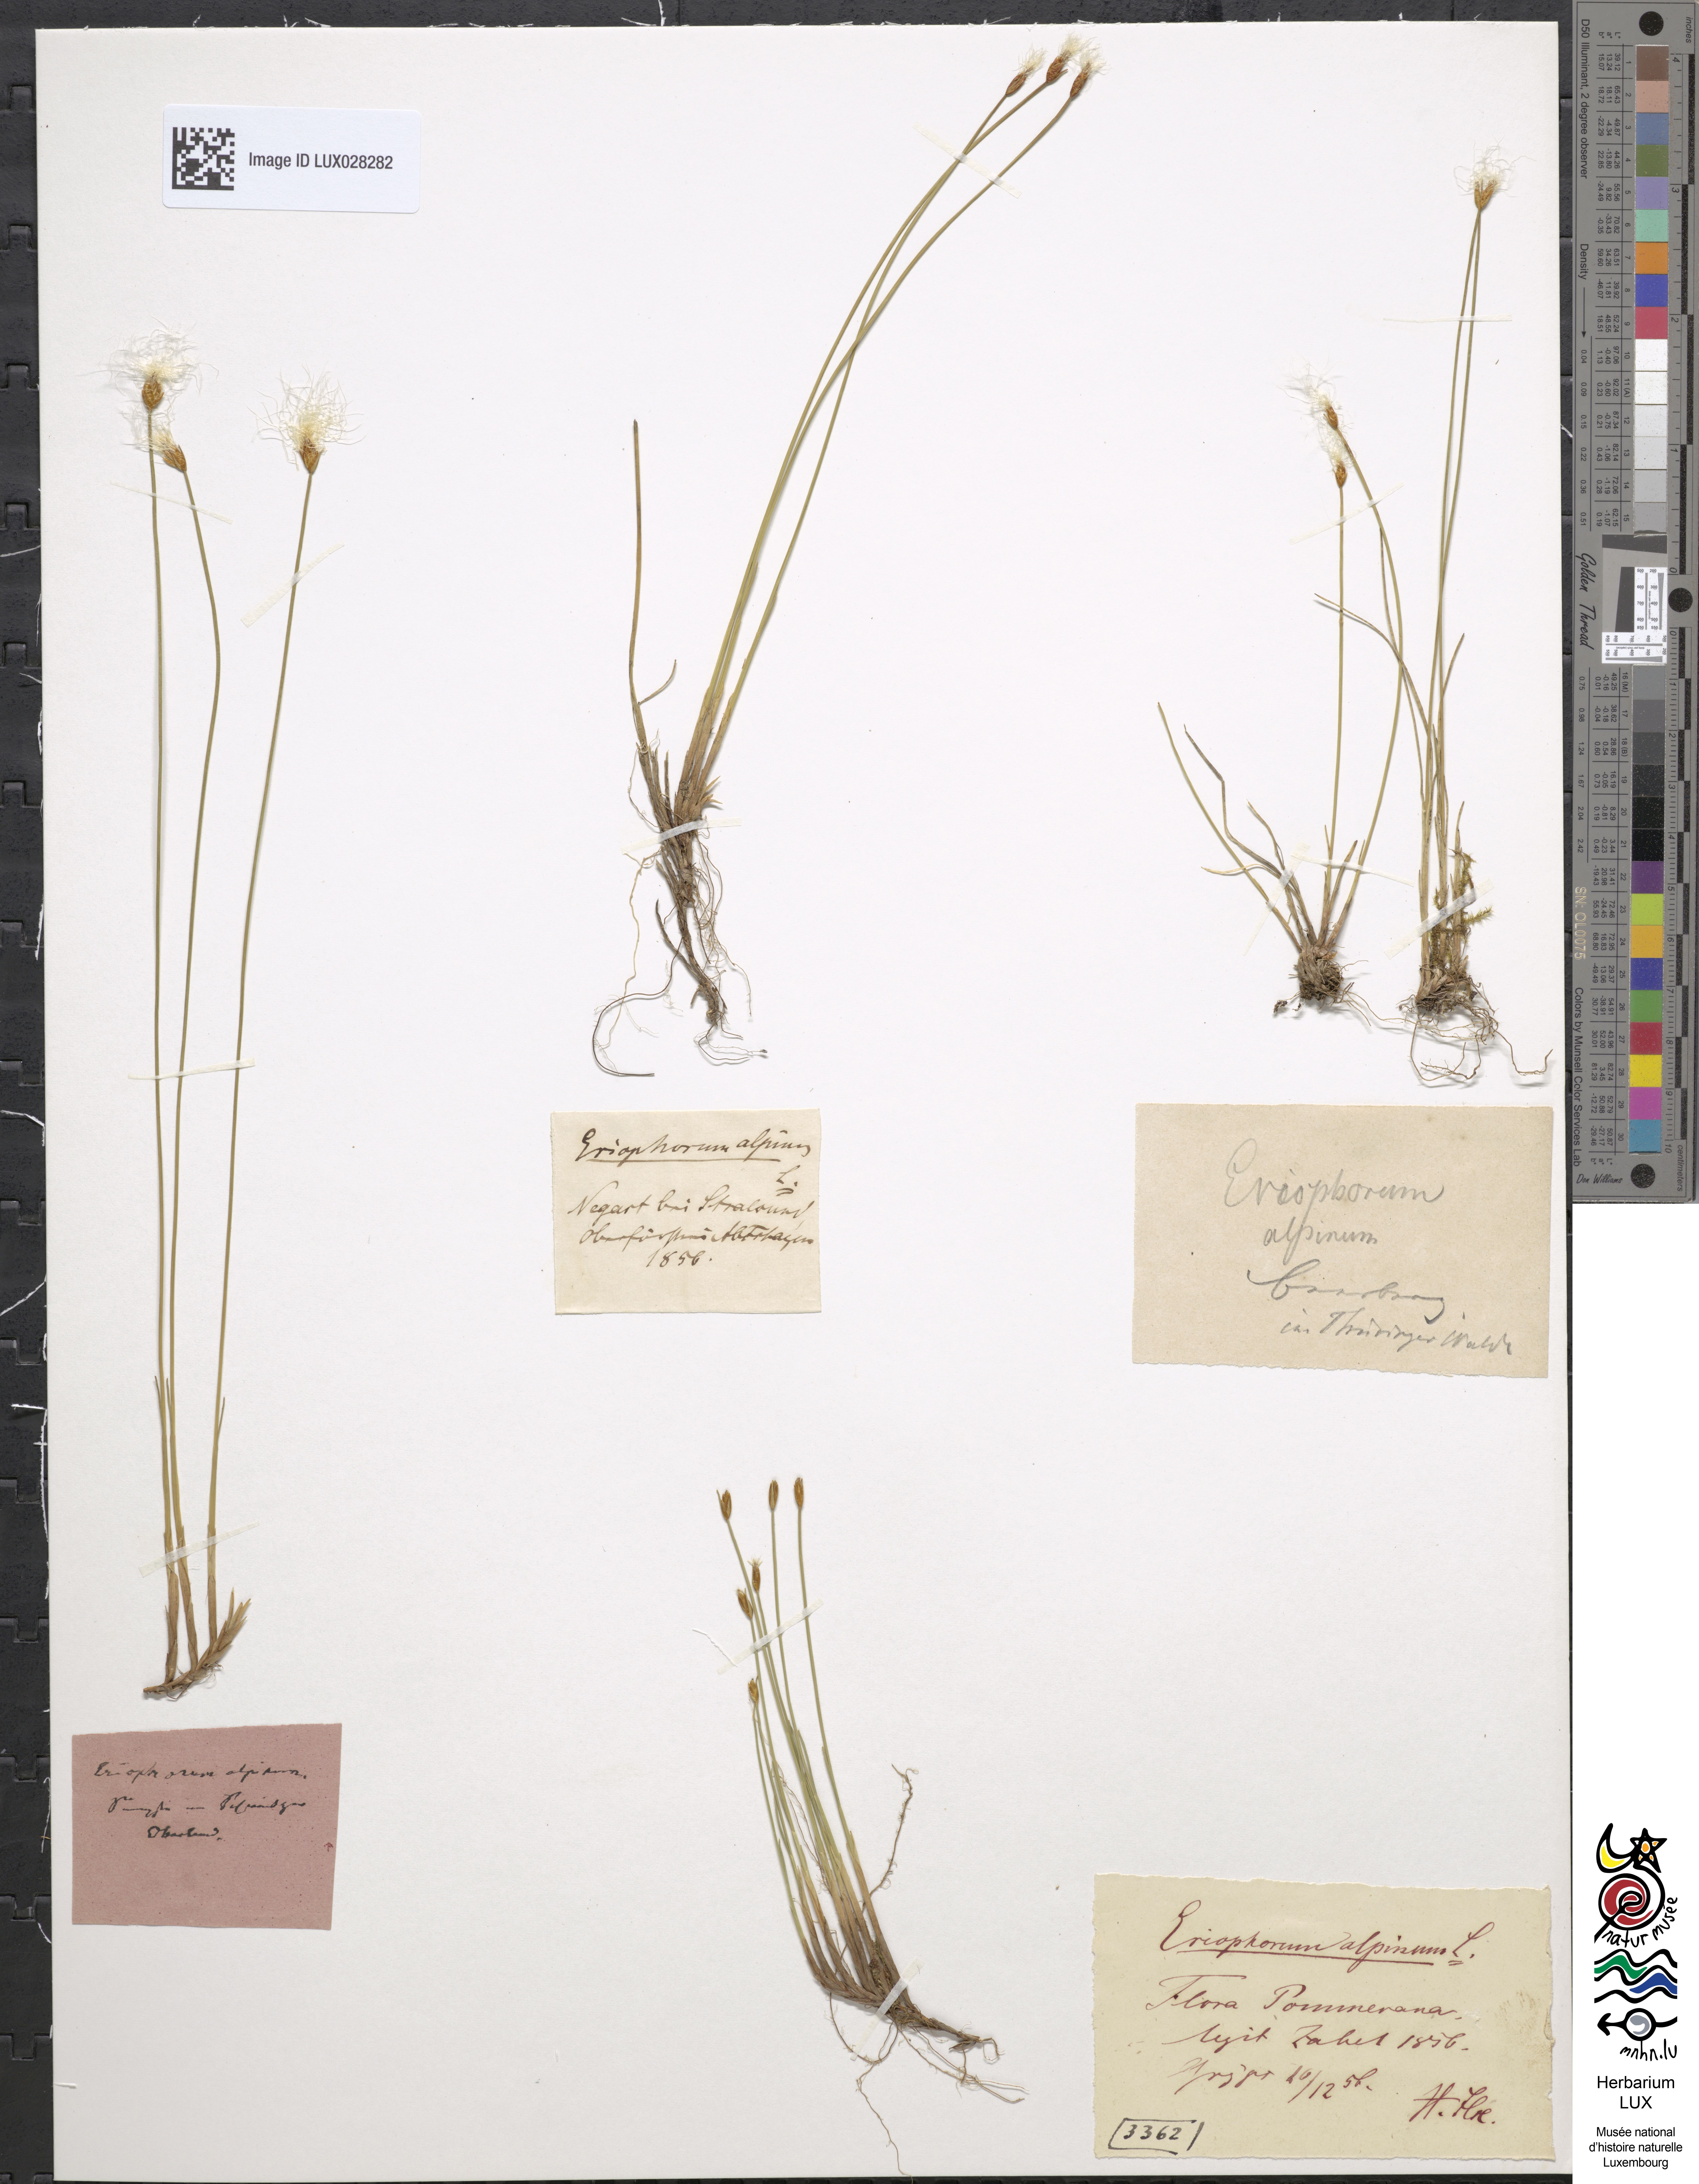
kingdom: Plantae
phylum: Tracheophyta
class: Liliopsida
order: Poales
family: Cyperaceae
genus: Trichophorum
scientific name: Trichophorum alpinum
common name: Alpine bulrush
